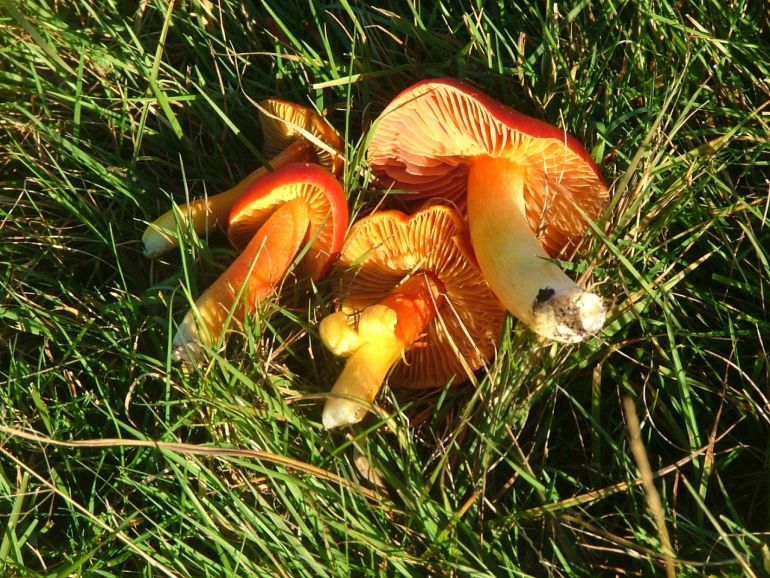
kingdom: Fungi
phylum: Basidiomycota
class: Agaricomycetes
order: Agaricales
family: Hygrophoraceae
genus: Hygrocybe
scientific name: Hygrocybe punicea
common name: skarlagen-vokshat
